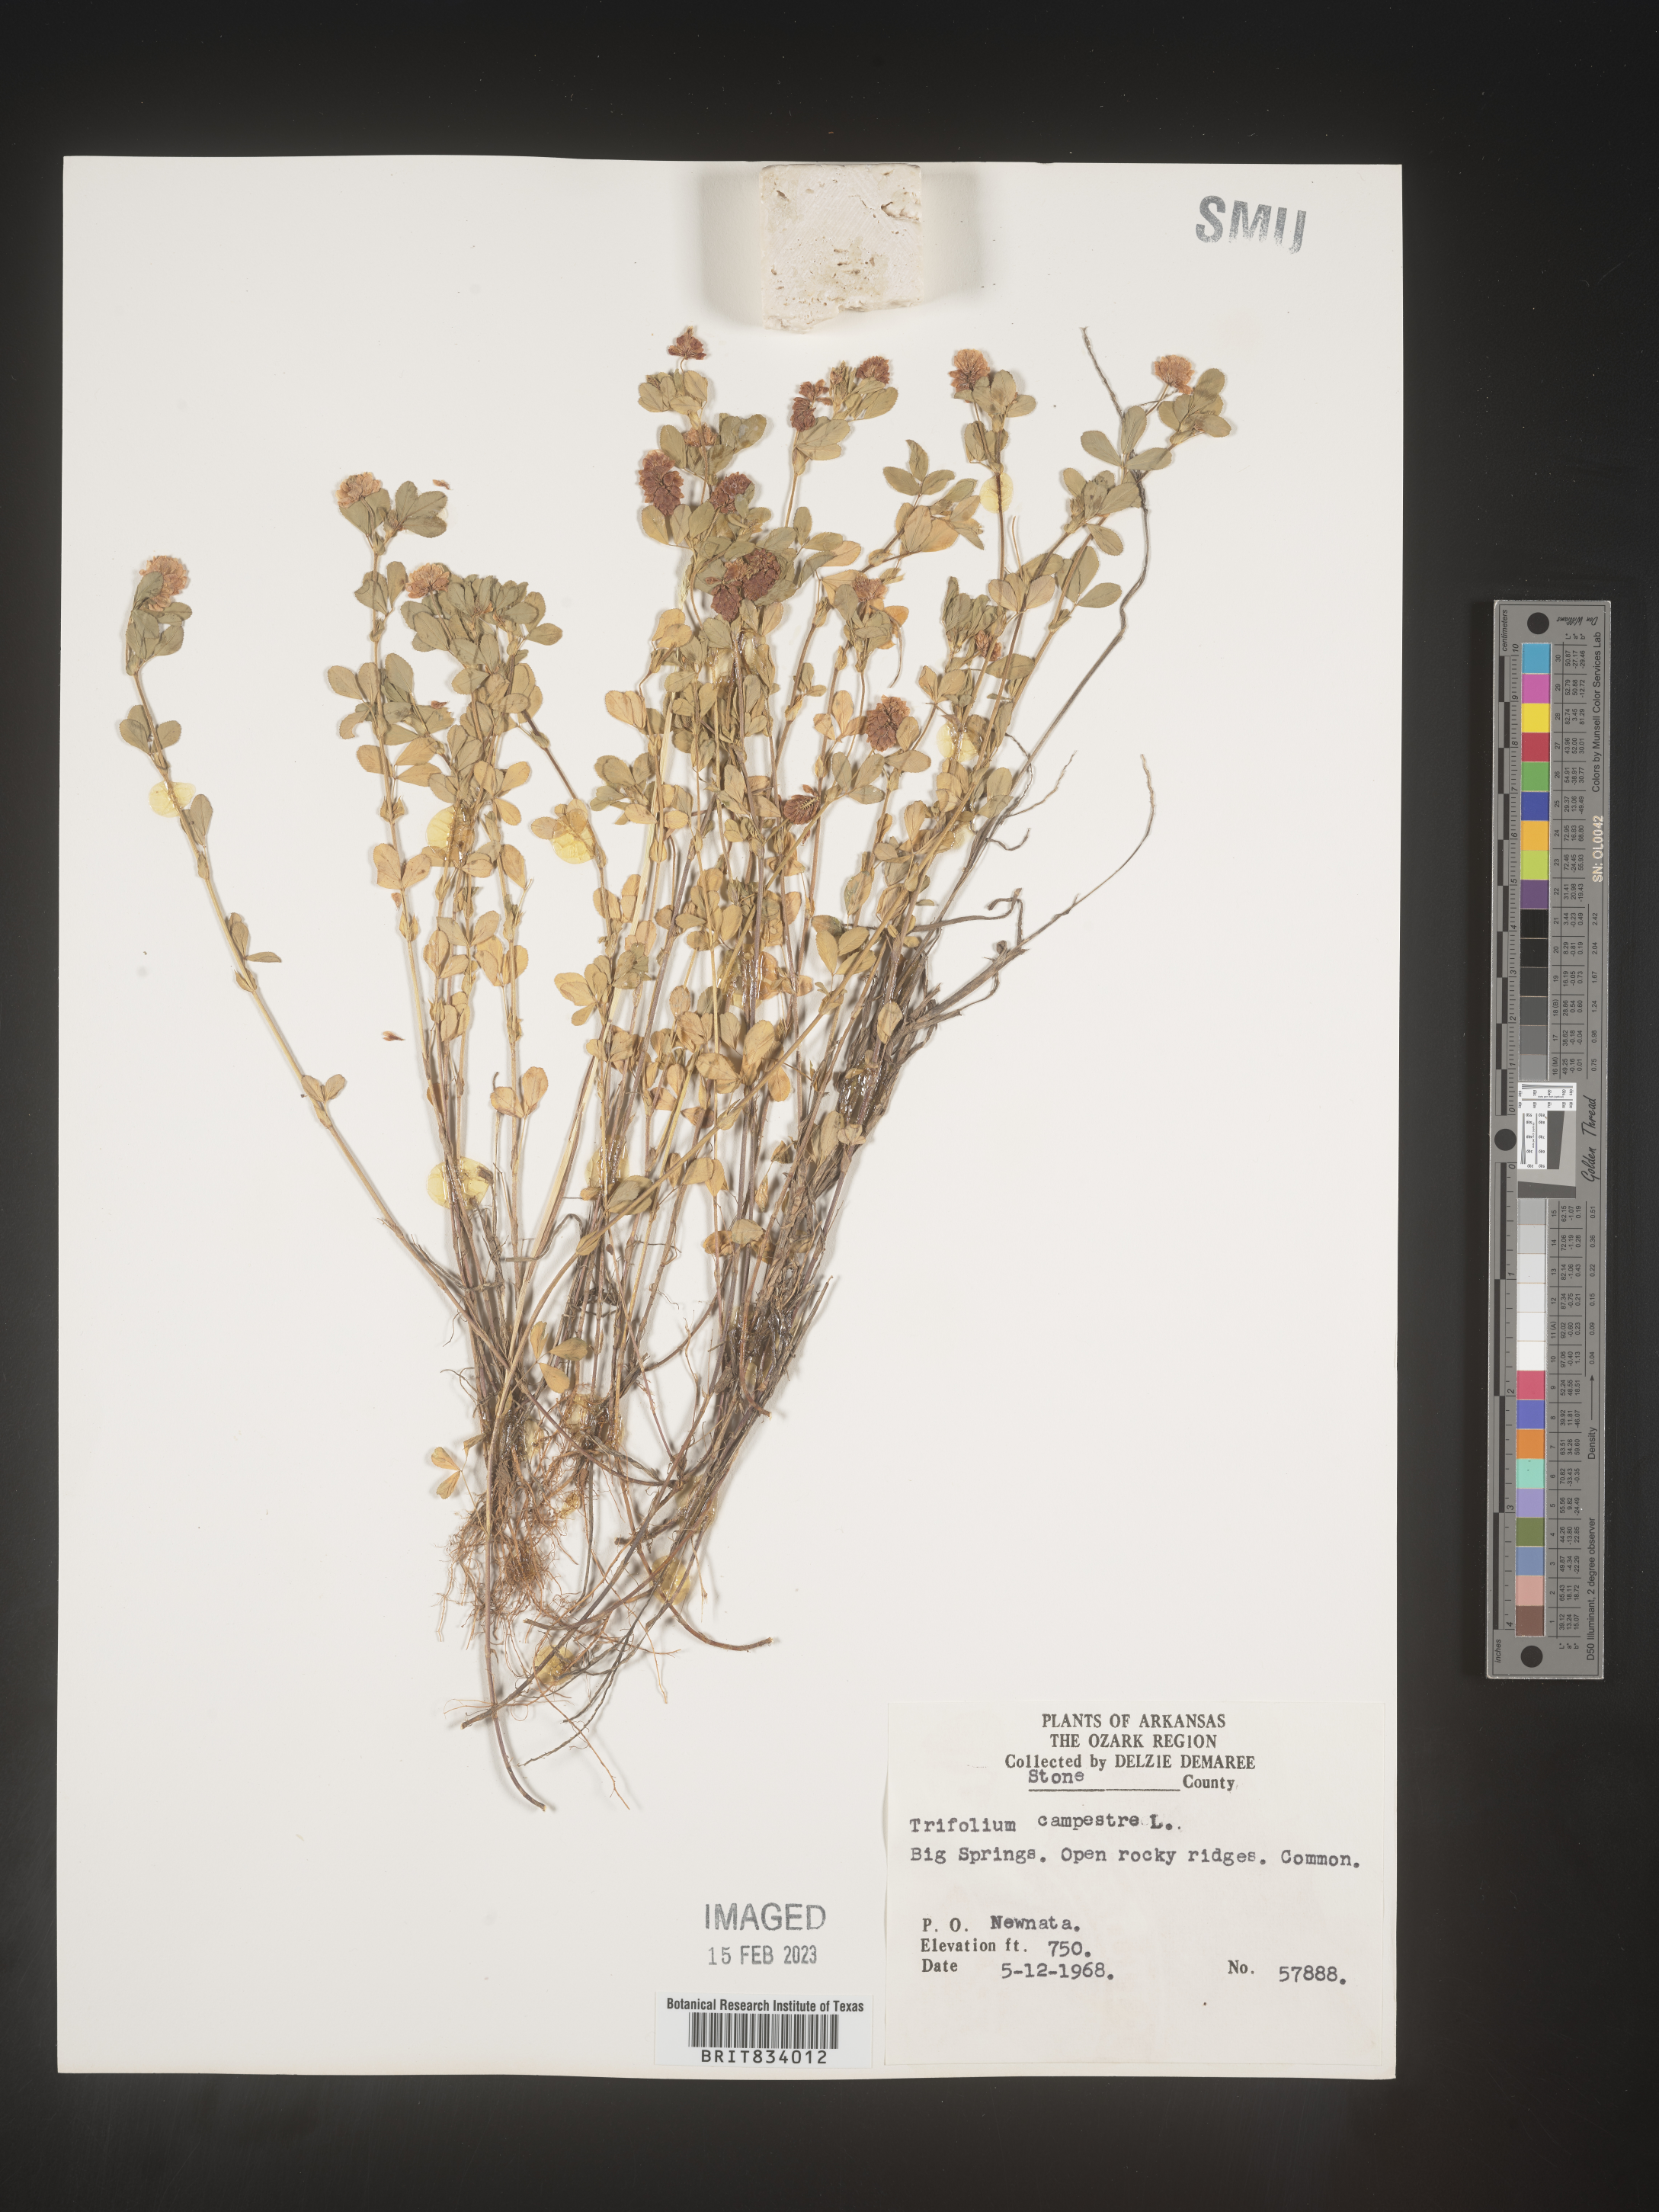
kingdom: Plantae
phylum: Tracheophyta
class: Magnoliopsida
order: Fabales
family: Fabaceae
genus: Trifolium
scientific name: Trifolium campestre
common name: Field clover
